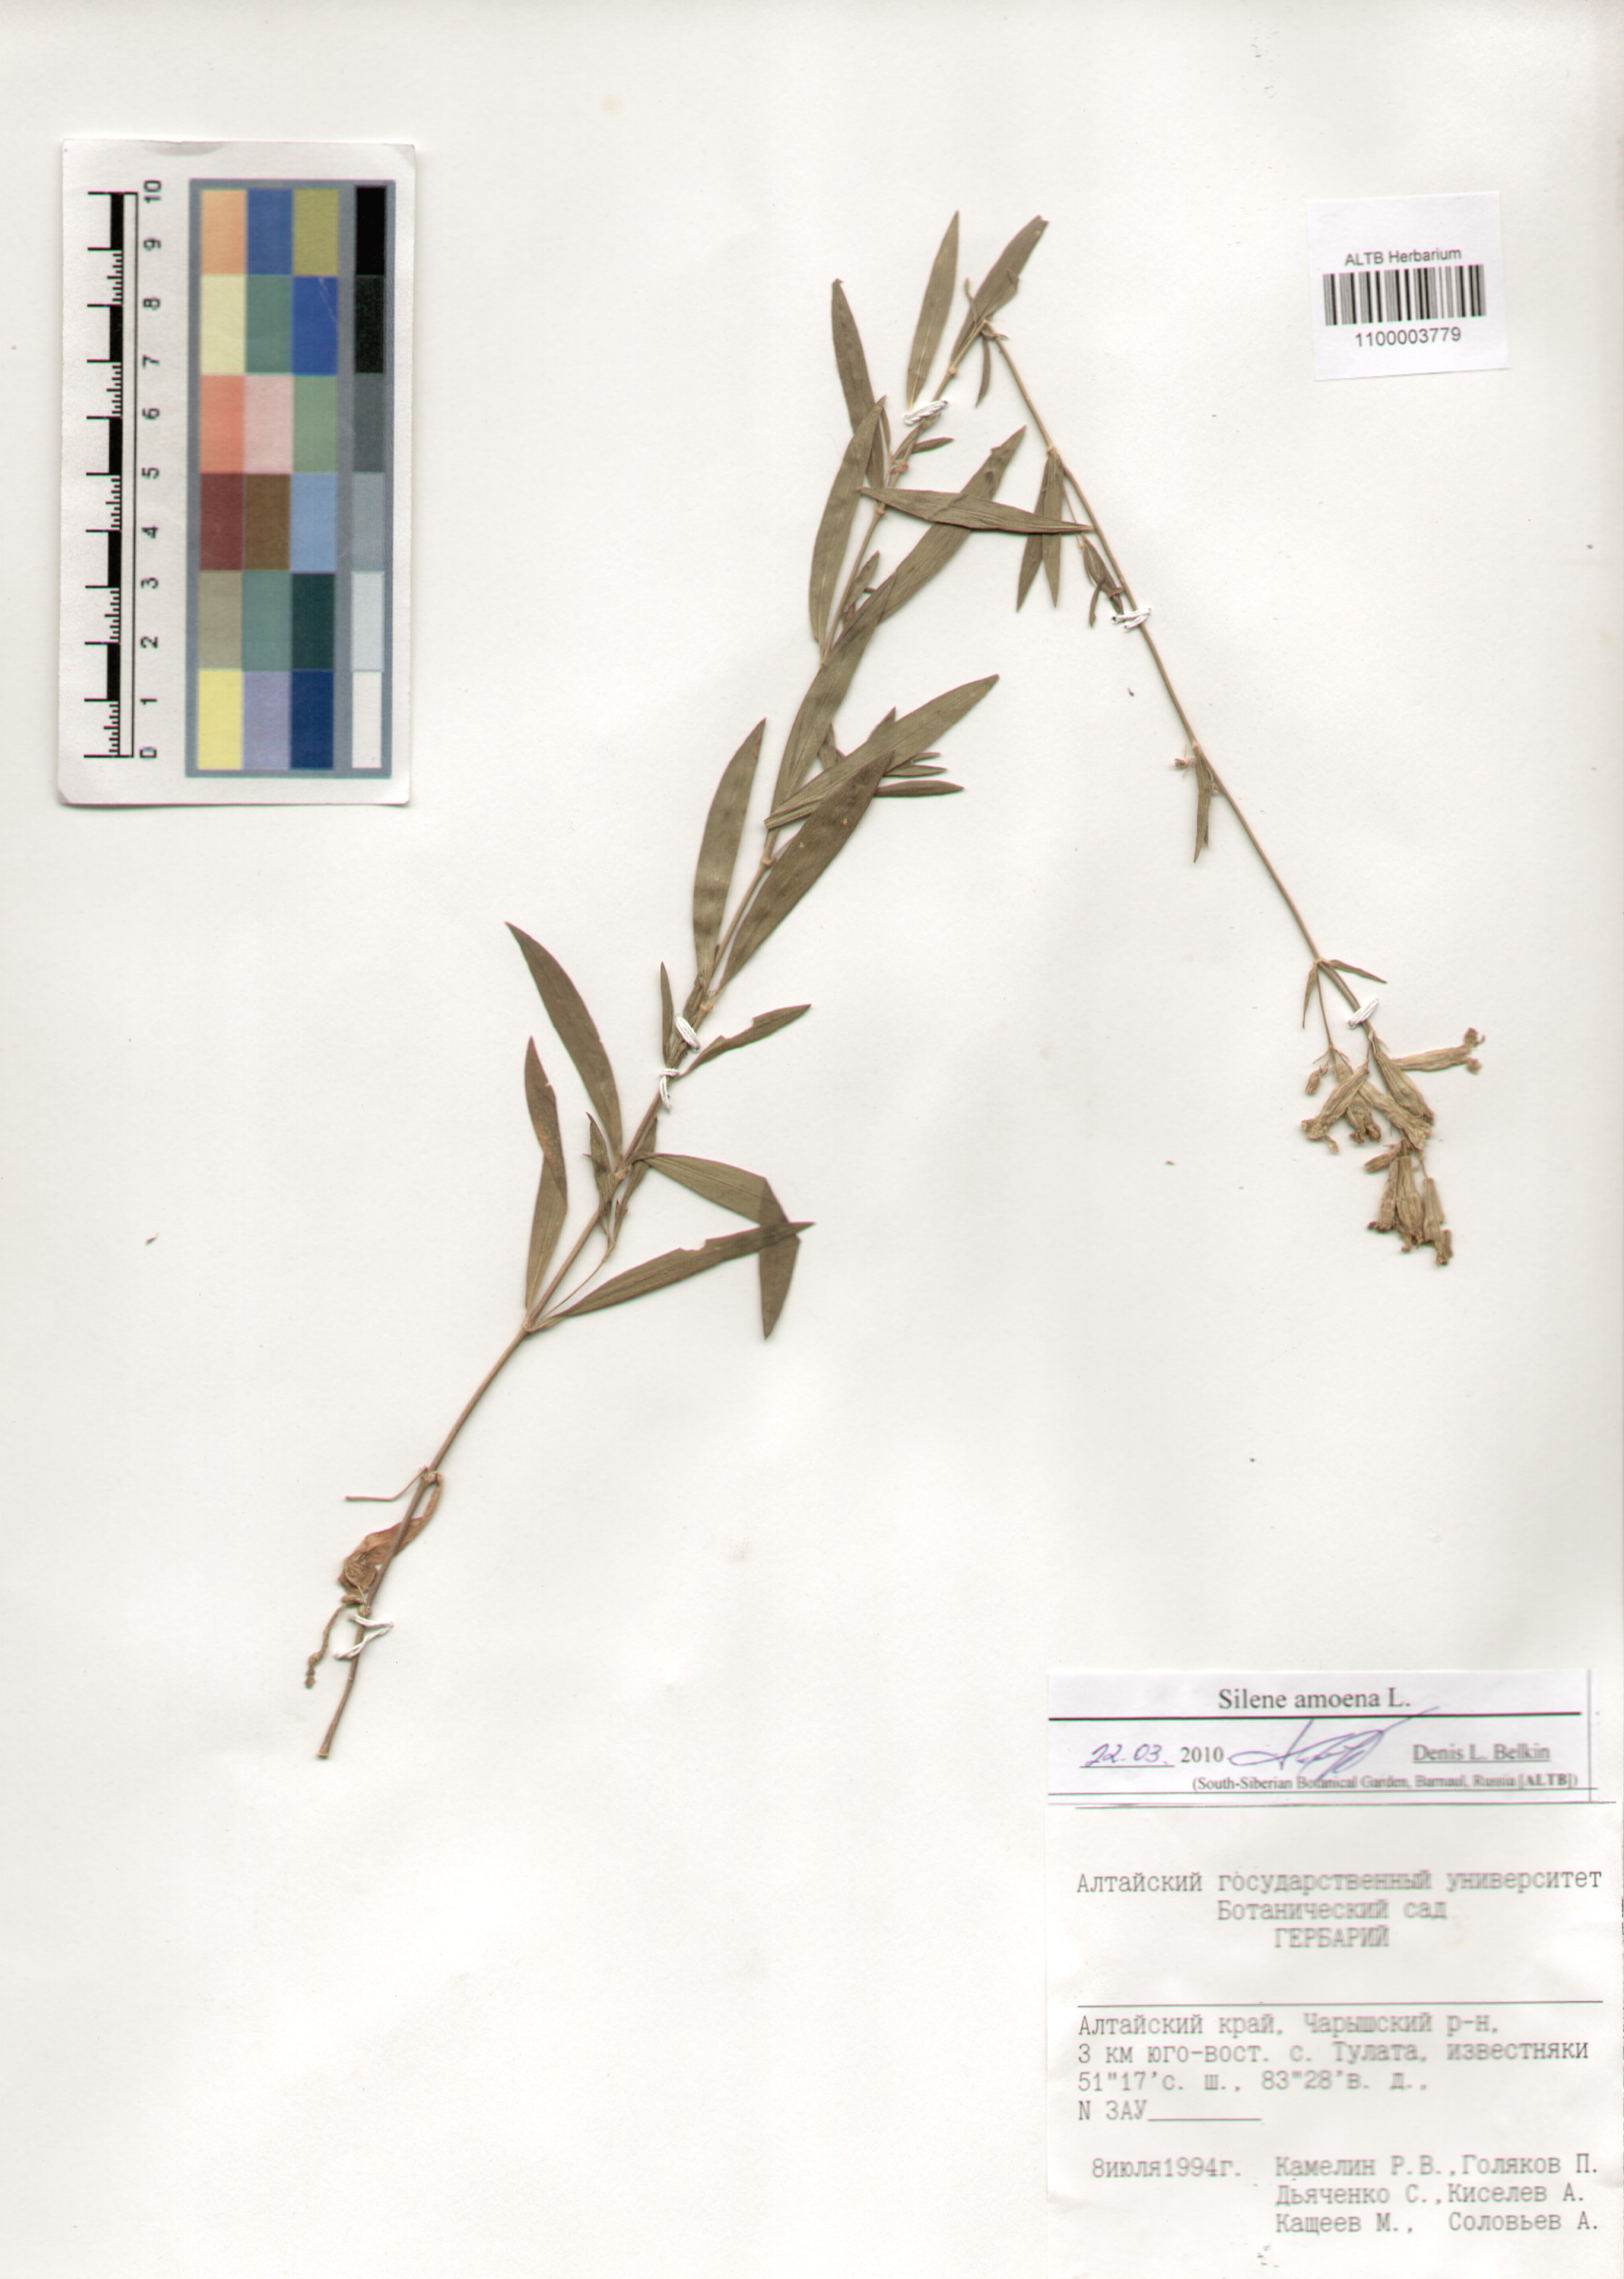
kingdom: Plantae
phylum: Tracheophyta
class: Magnoliopsida
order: Caryophyllales
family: Caryophyllaceae
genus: Silene
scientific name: Silene amoena
